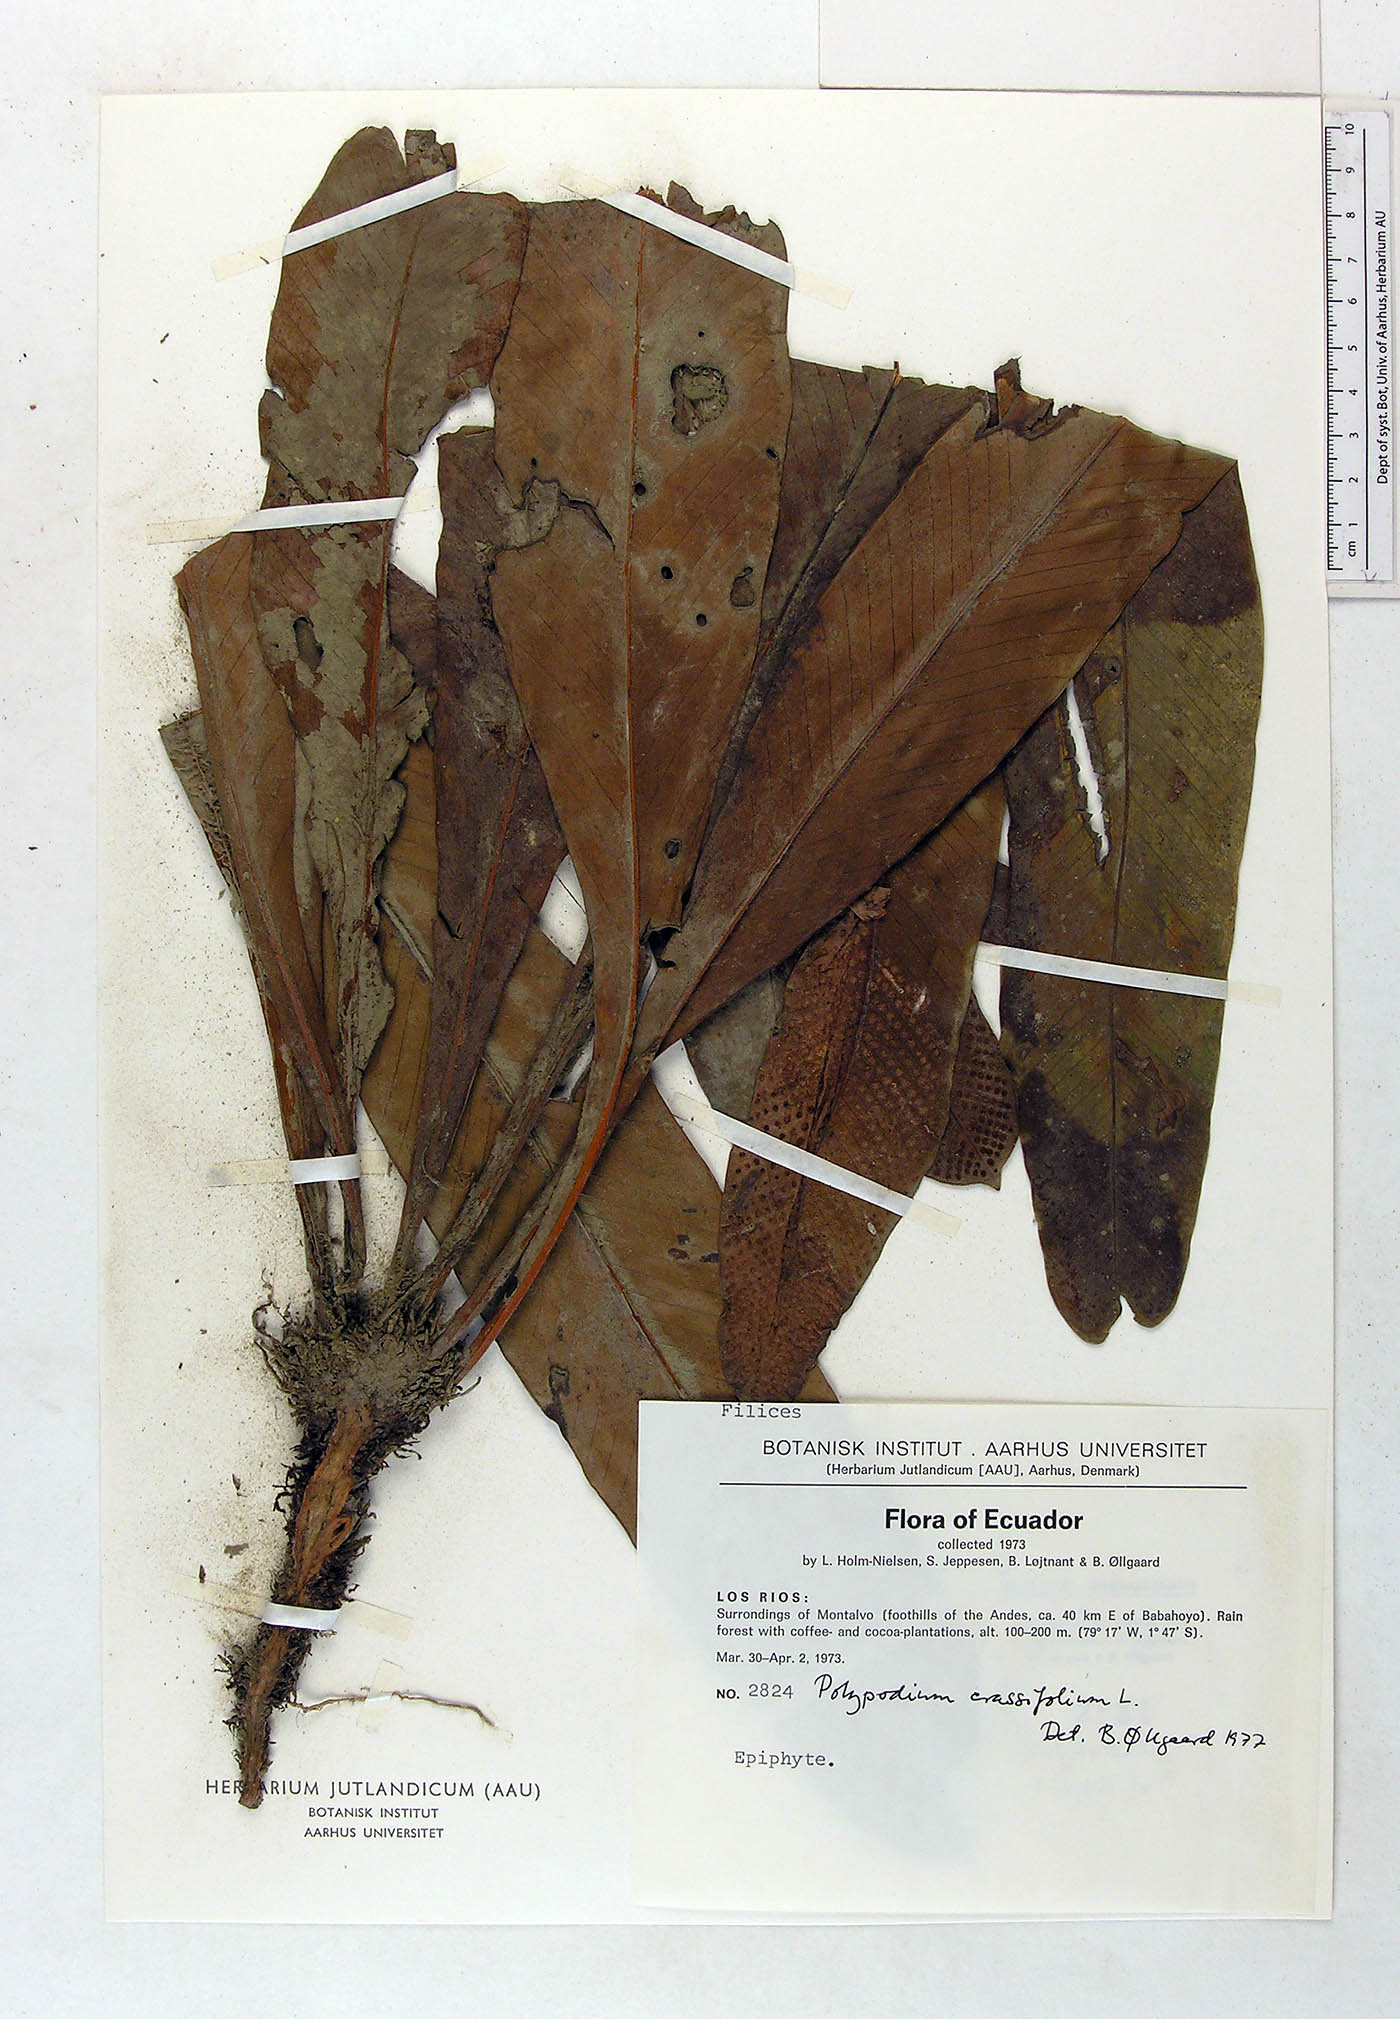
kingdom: Plantae
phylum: Tracheophyta
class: Polypodiopsida
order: Polypodiales
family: Polypodiaceae
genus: Niphidium
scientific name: Niphidium crassifolium
